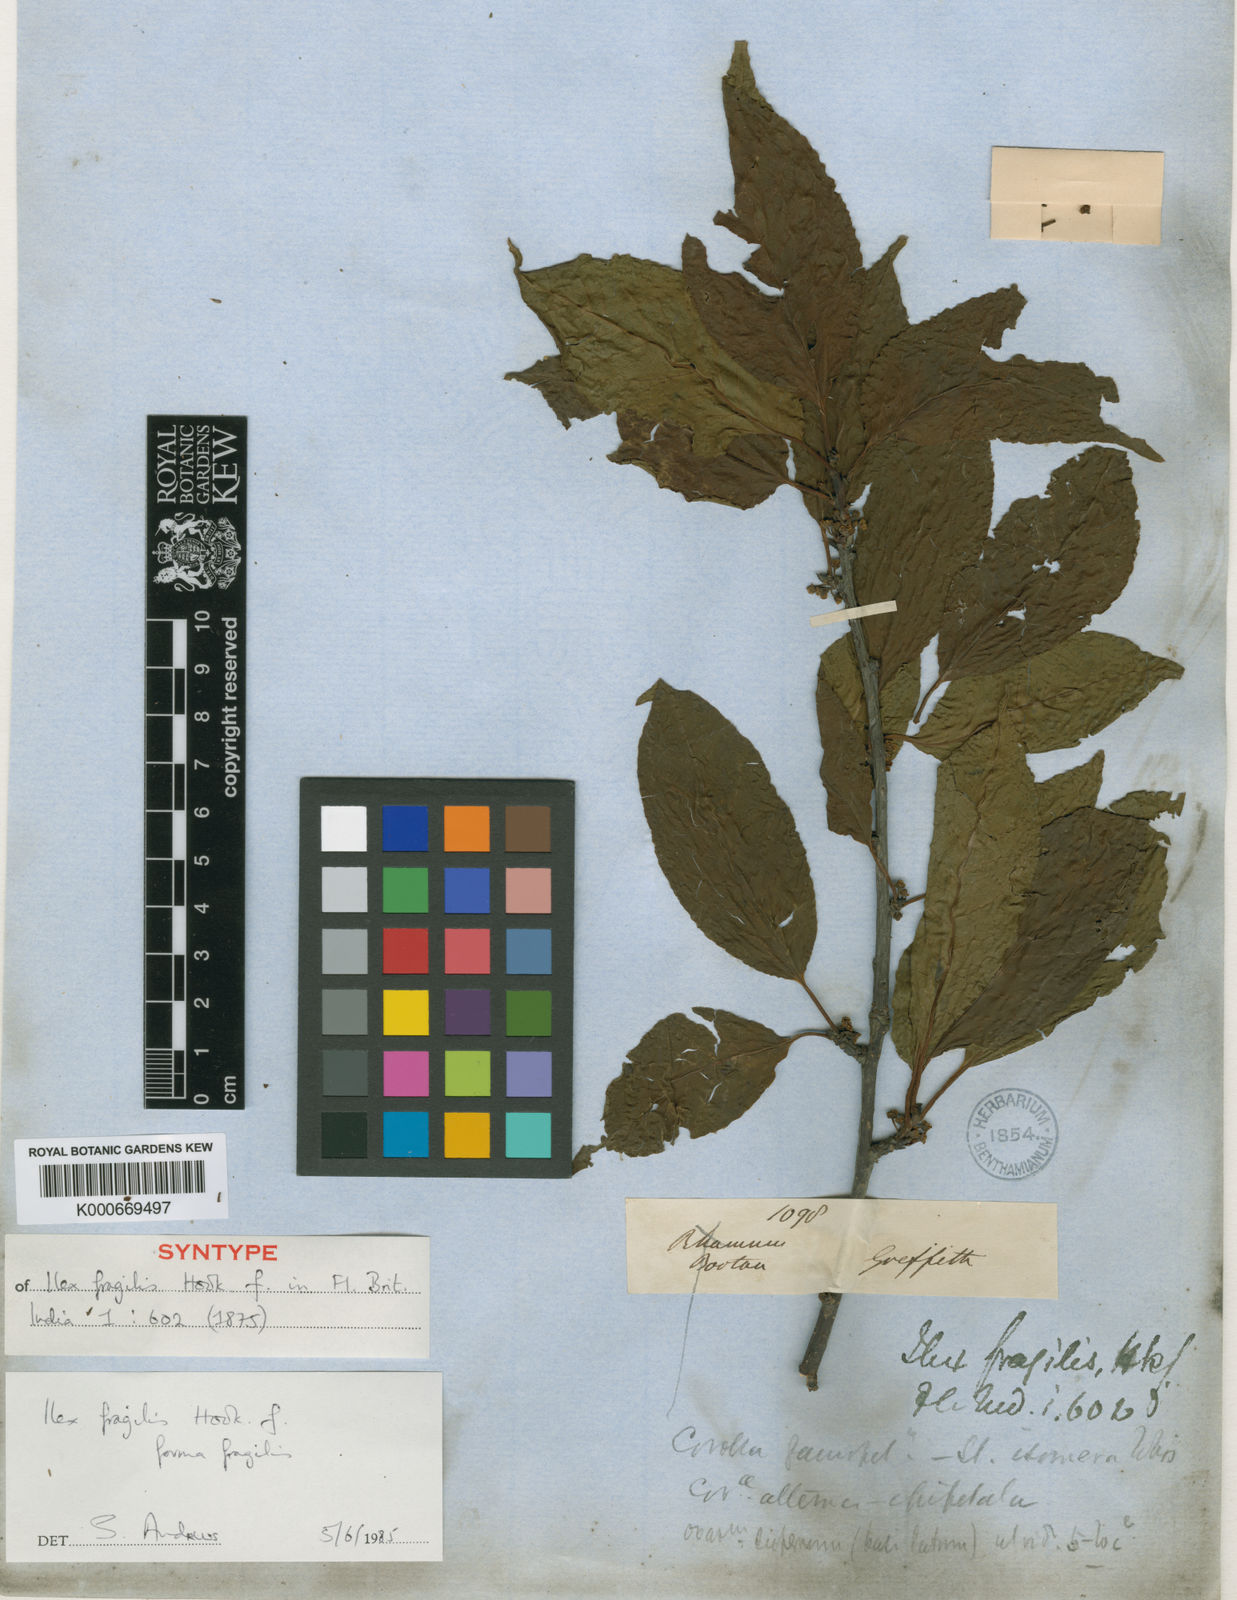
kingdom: Plantae
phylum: Tracheophyta
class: Magnoliopsida
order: Aquifoliales
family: Aquifoliaceae
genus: Ilex
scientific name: Ilex fragilis
